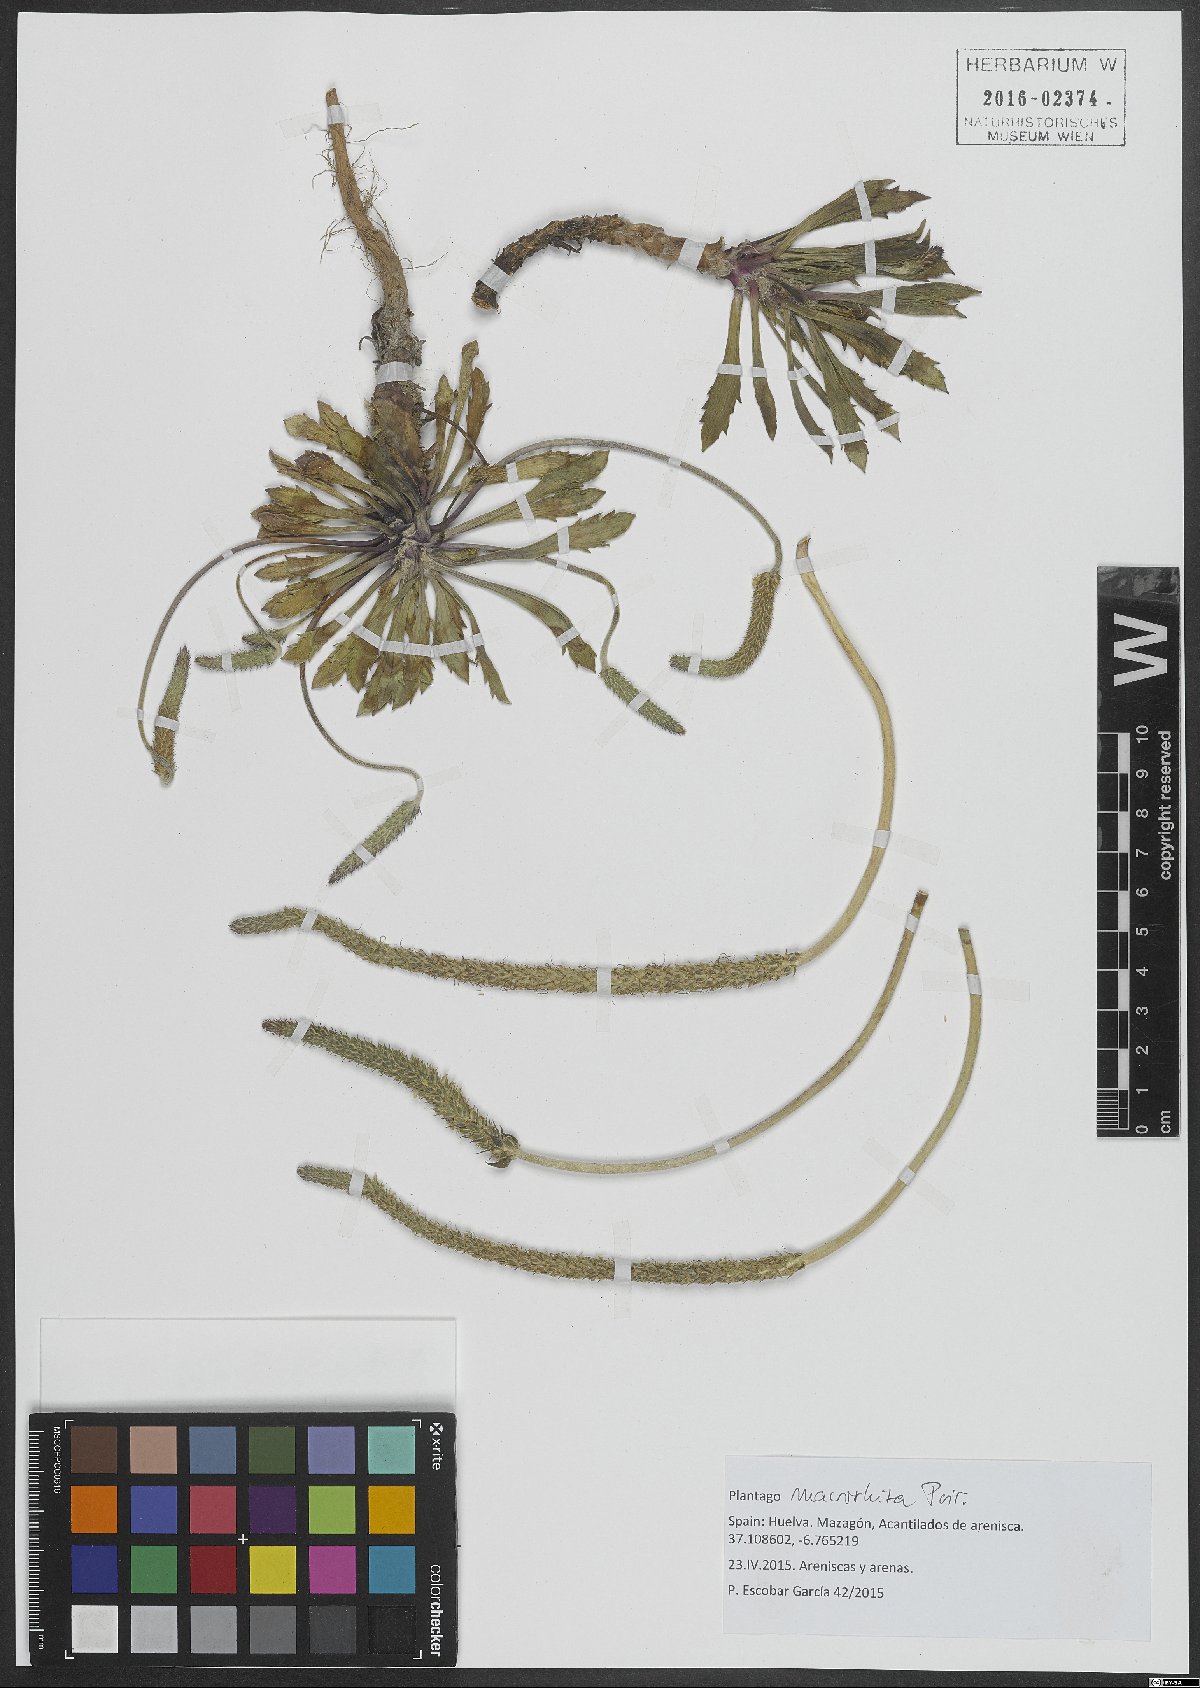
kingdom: Plantae
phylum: Tracheophyta
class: Magnoliopsida
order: Lamiales
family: Plantaginaceae
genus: Plantago
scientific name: Plantago macrorhiza
